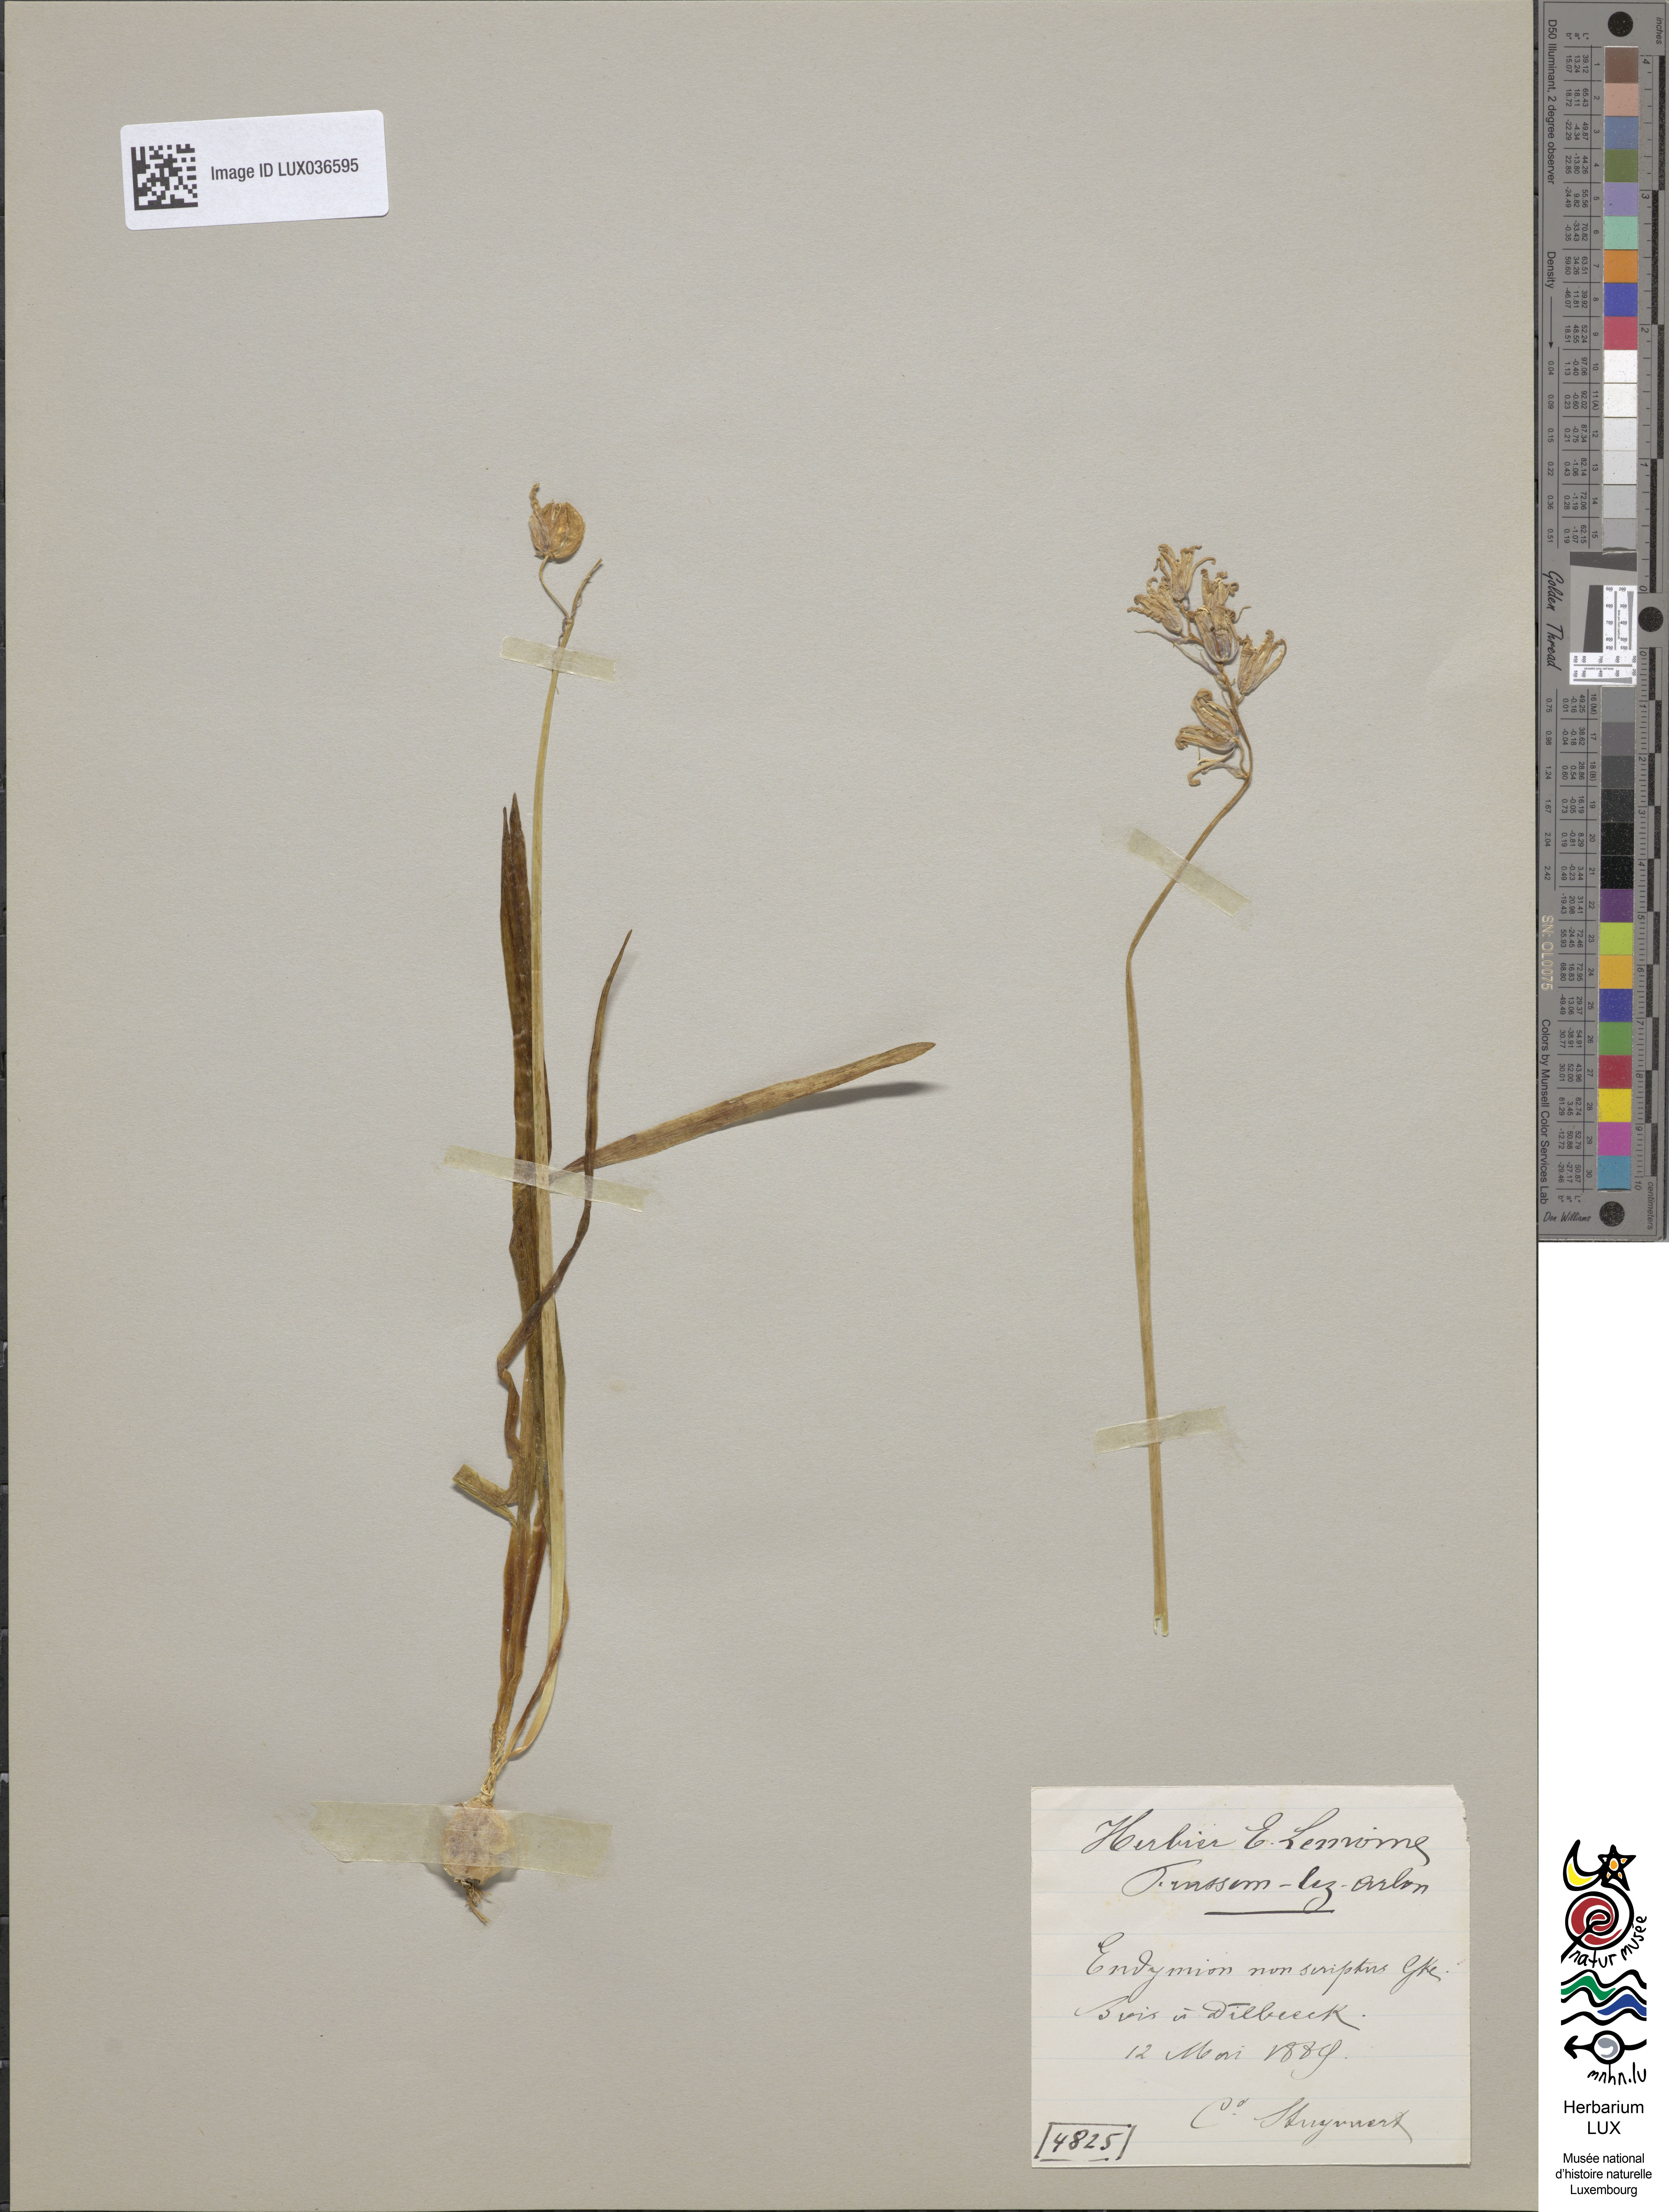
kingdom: Plantae
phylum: Tracheophyta
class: Liliopsida
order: Asparagales
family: Asparagaceae
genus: Hyacinthoides
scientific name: Hyacinthoides non-scripta
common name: Bluebell
